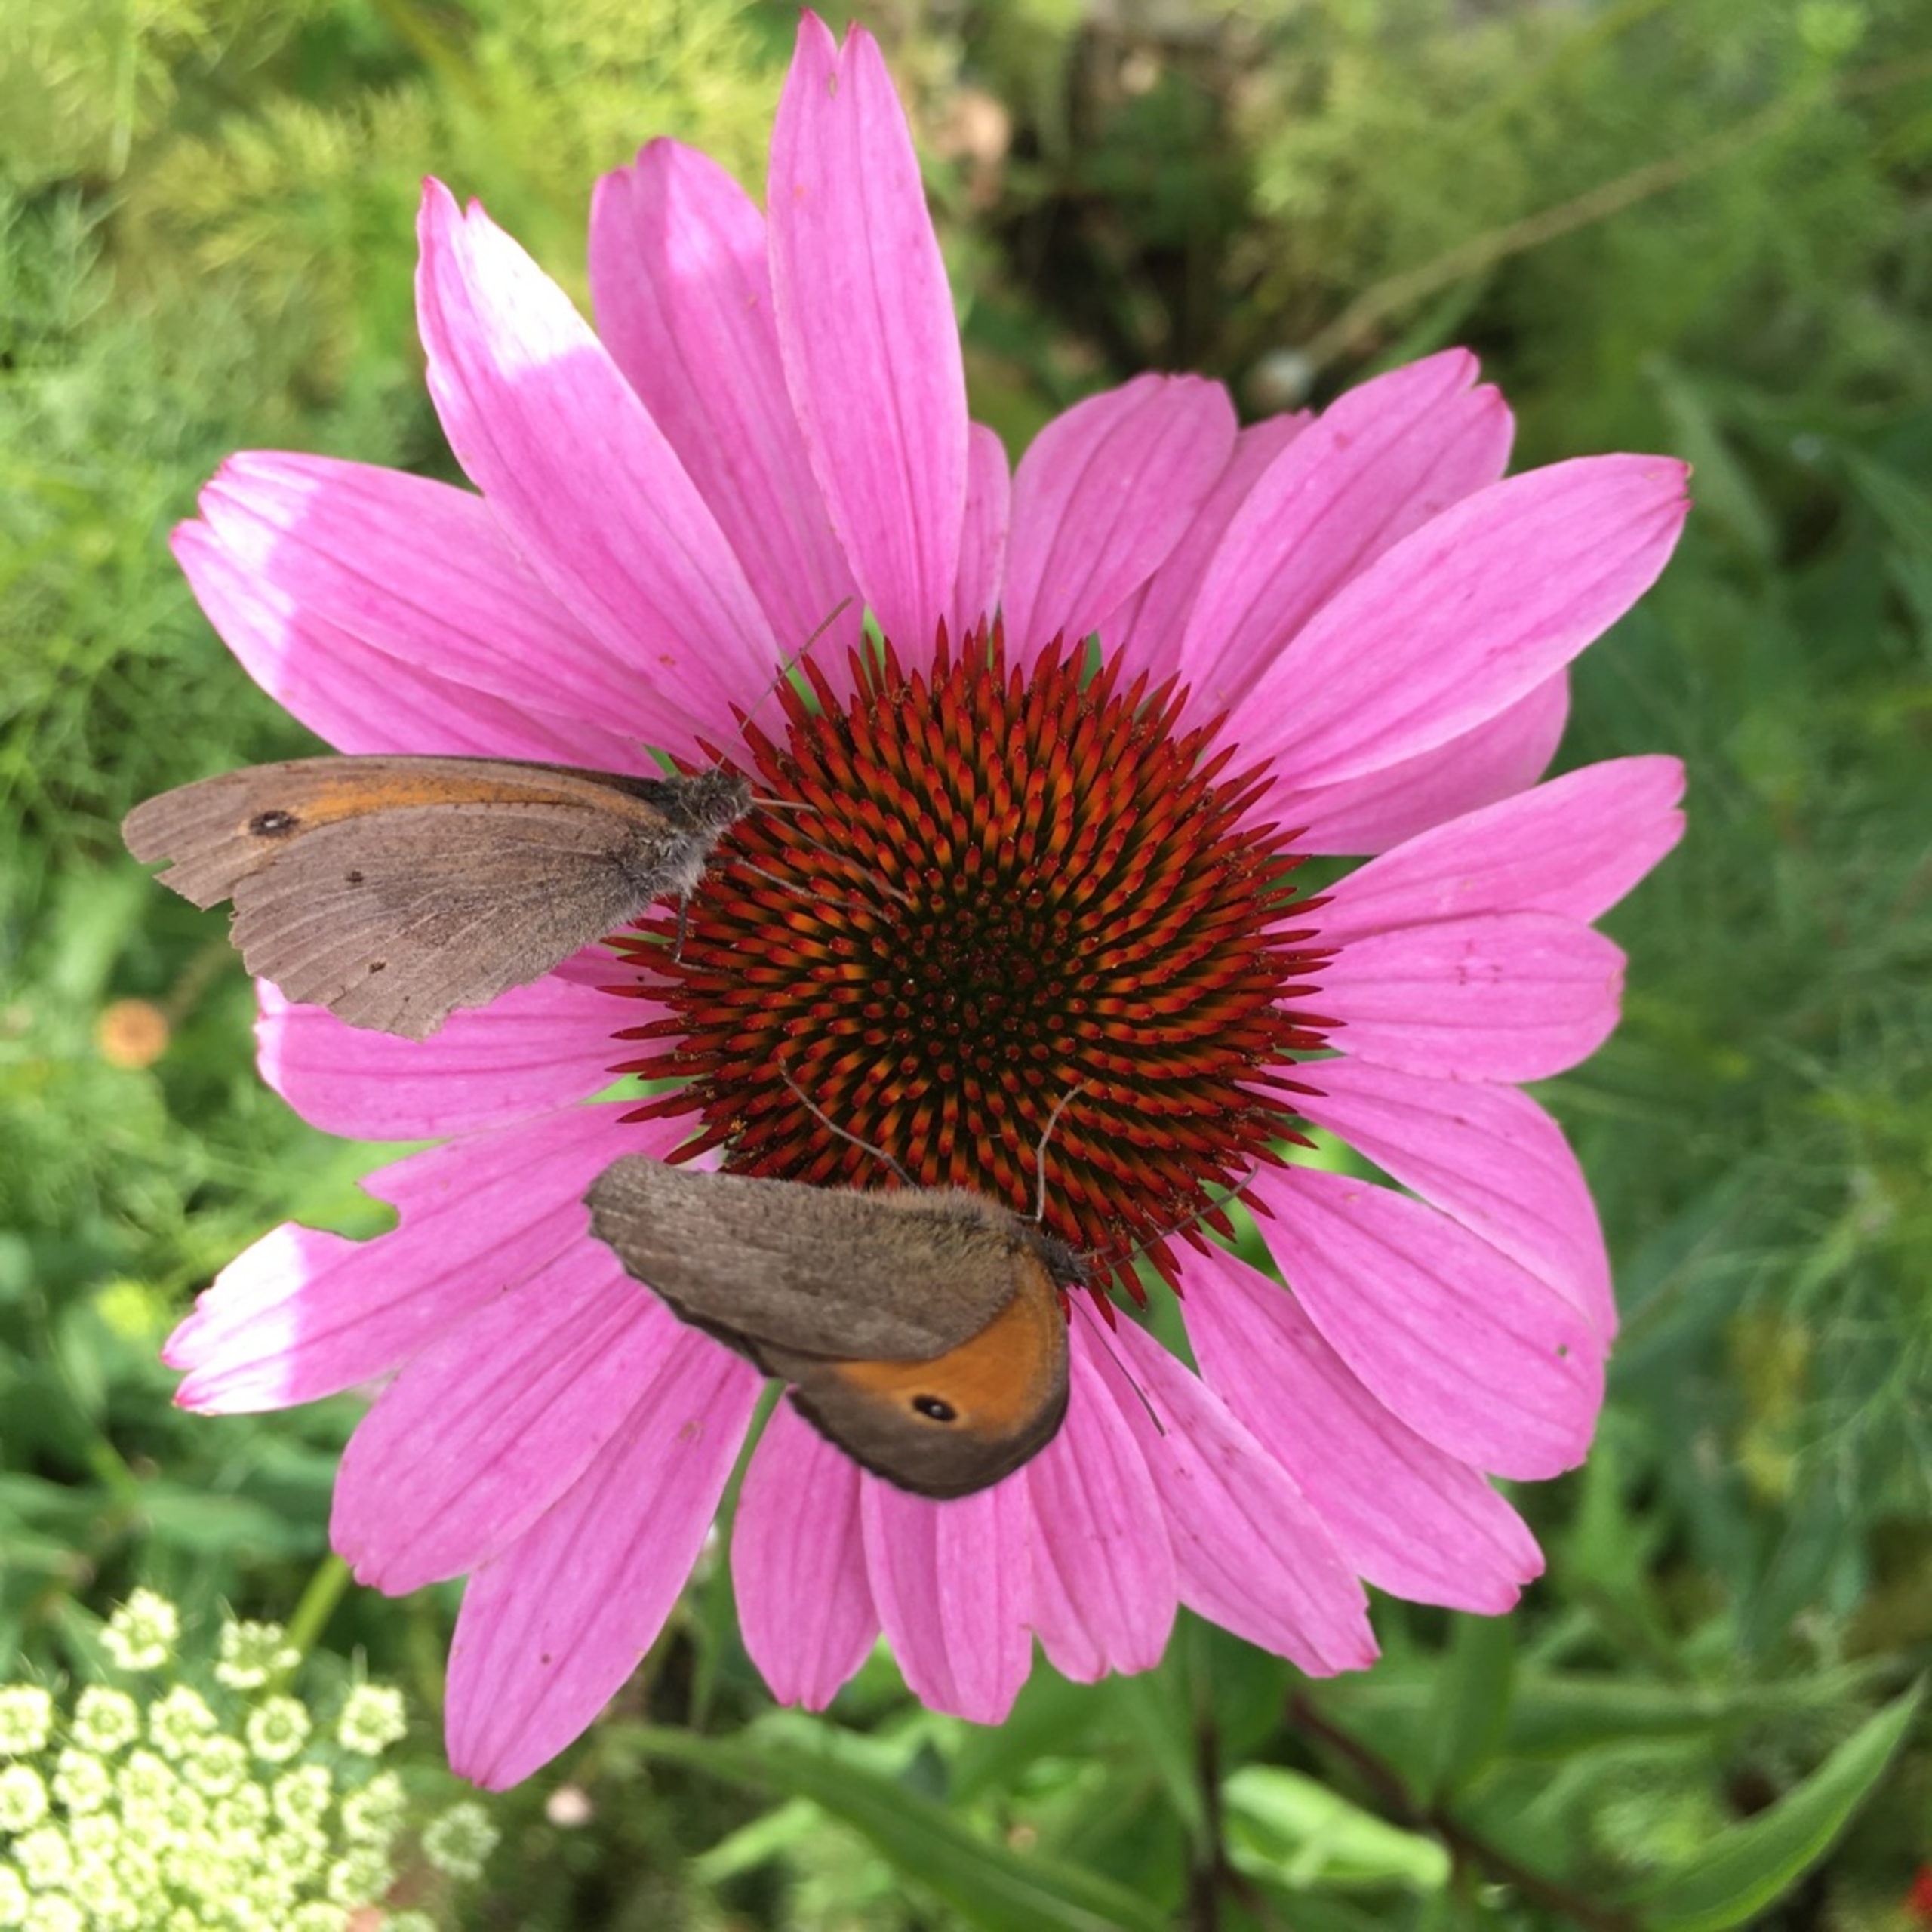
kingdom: Animalia
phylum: Arthropoda
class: Insecta
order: Lepidoptera
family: Nymphalidae
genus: Maniola
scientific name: Maniola jurtina
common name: Græsrandøje
